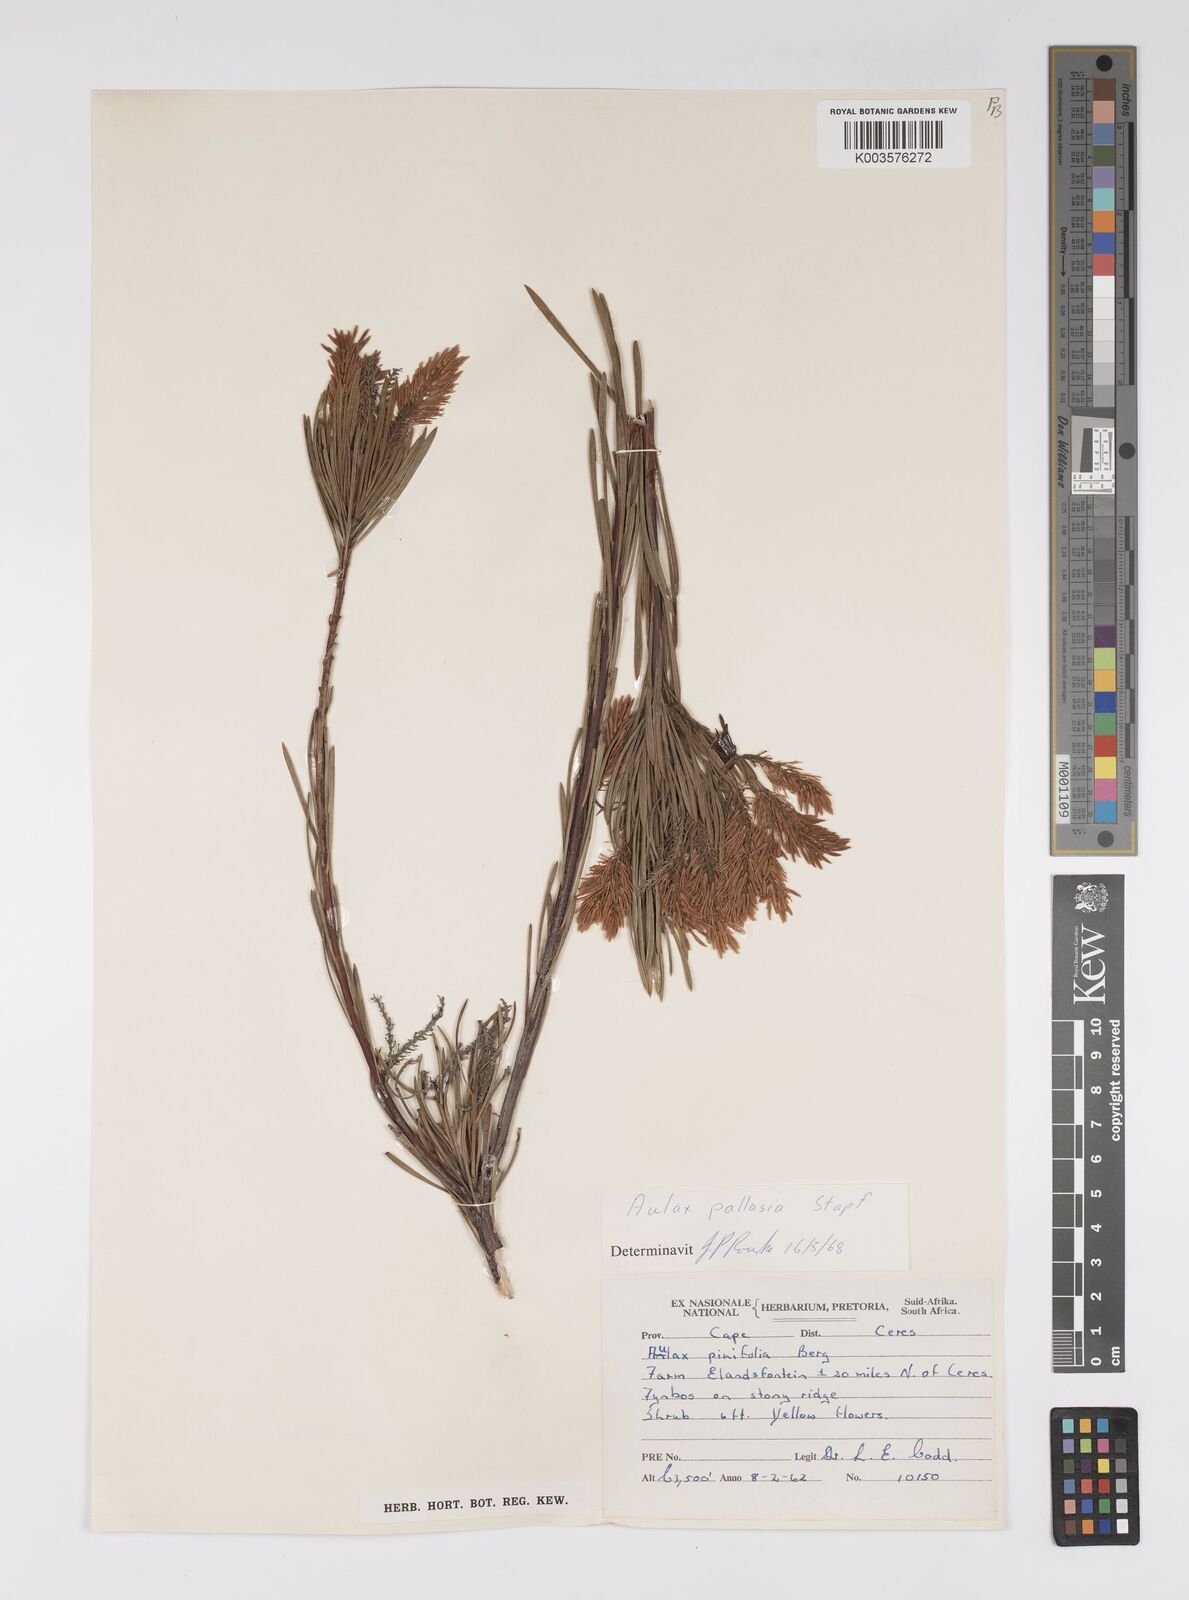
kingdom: Plantae
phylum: Tracheophyta
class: Magnoliopsida
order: Proteales
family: Proteaceae
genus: Aulax
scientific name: Aulax pallasia
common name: Needle-leaf featherbush
